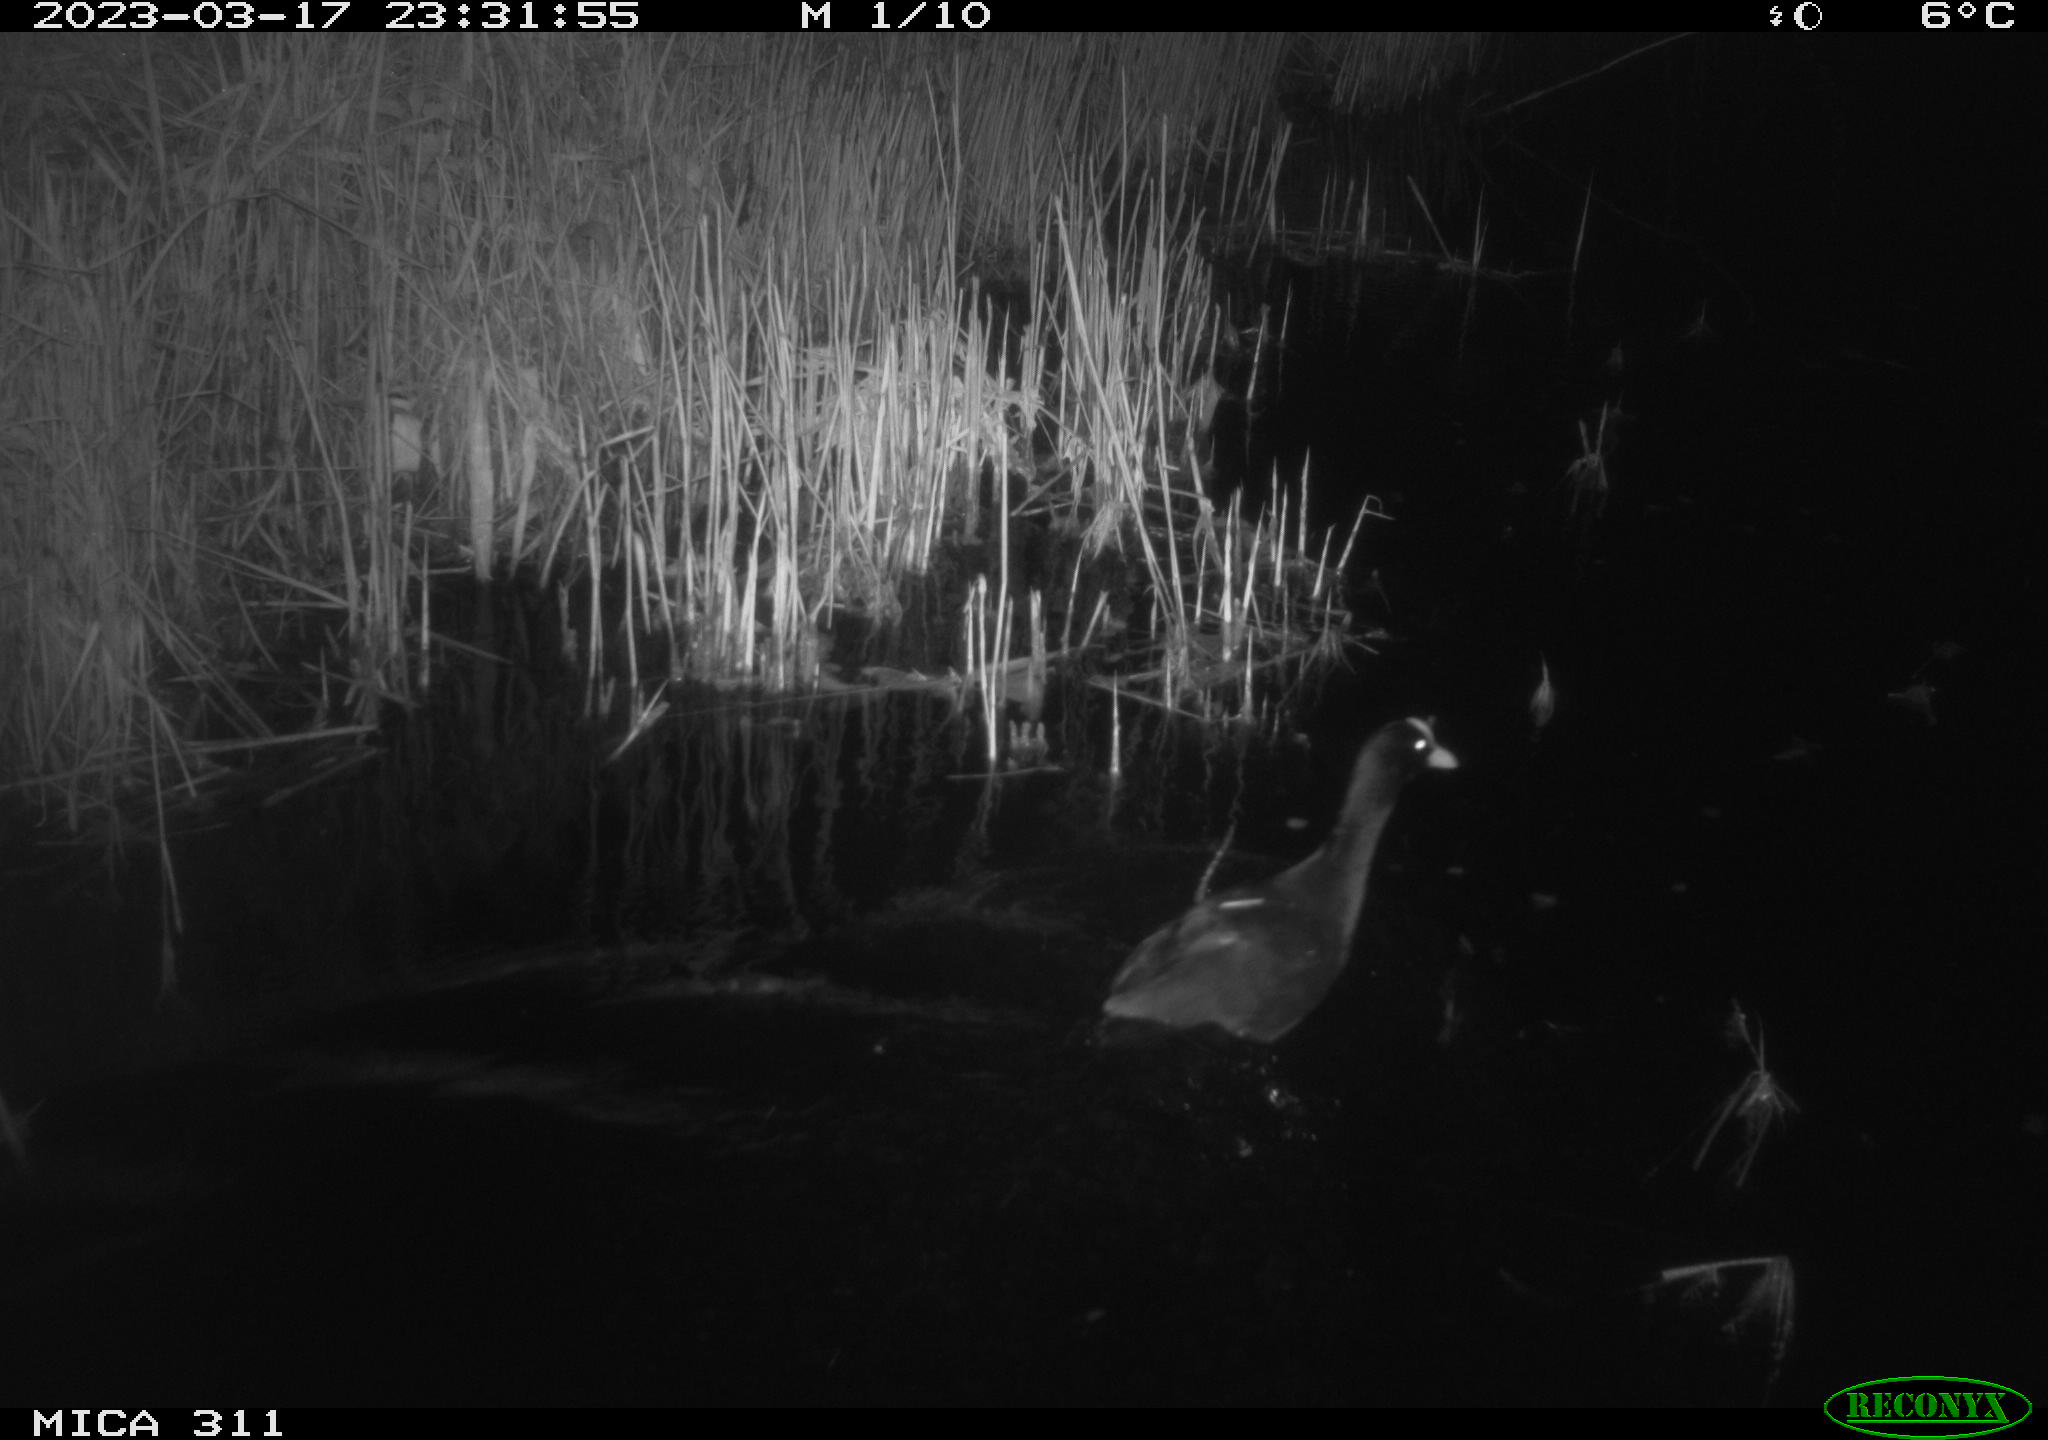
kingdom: Animalia
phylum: Chordata
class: Aves
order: Gruiformes
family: Rallidae
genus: Fulica
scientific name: Fulica atra
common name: Eurasian coot
